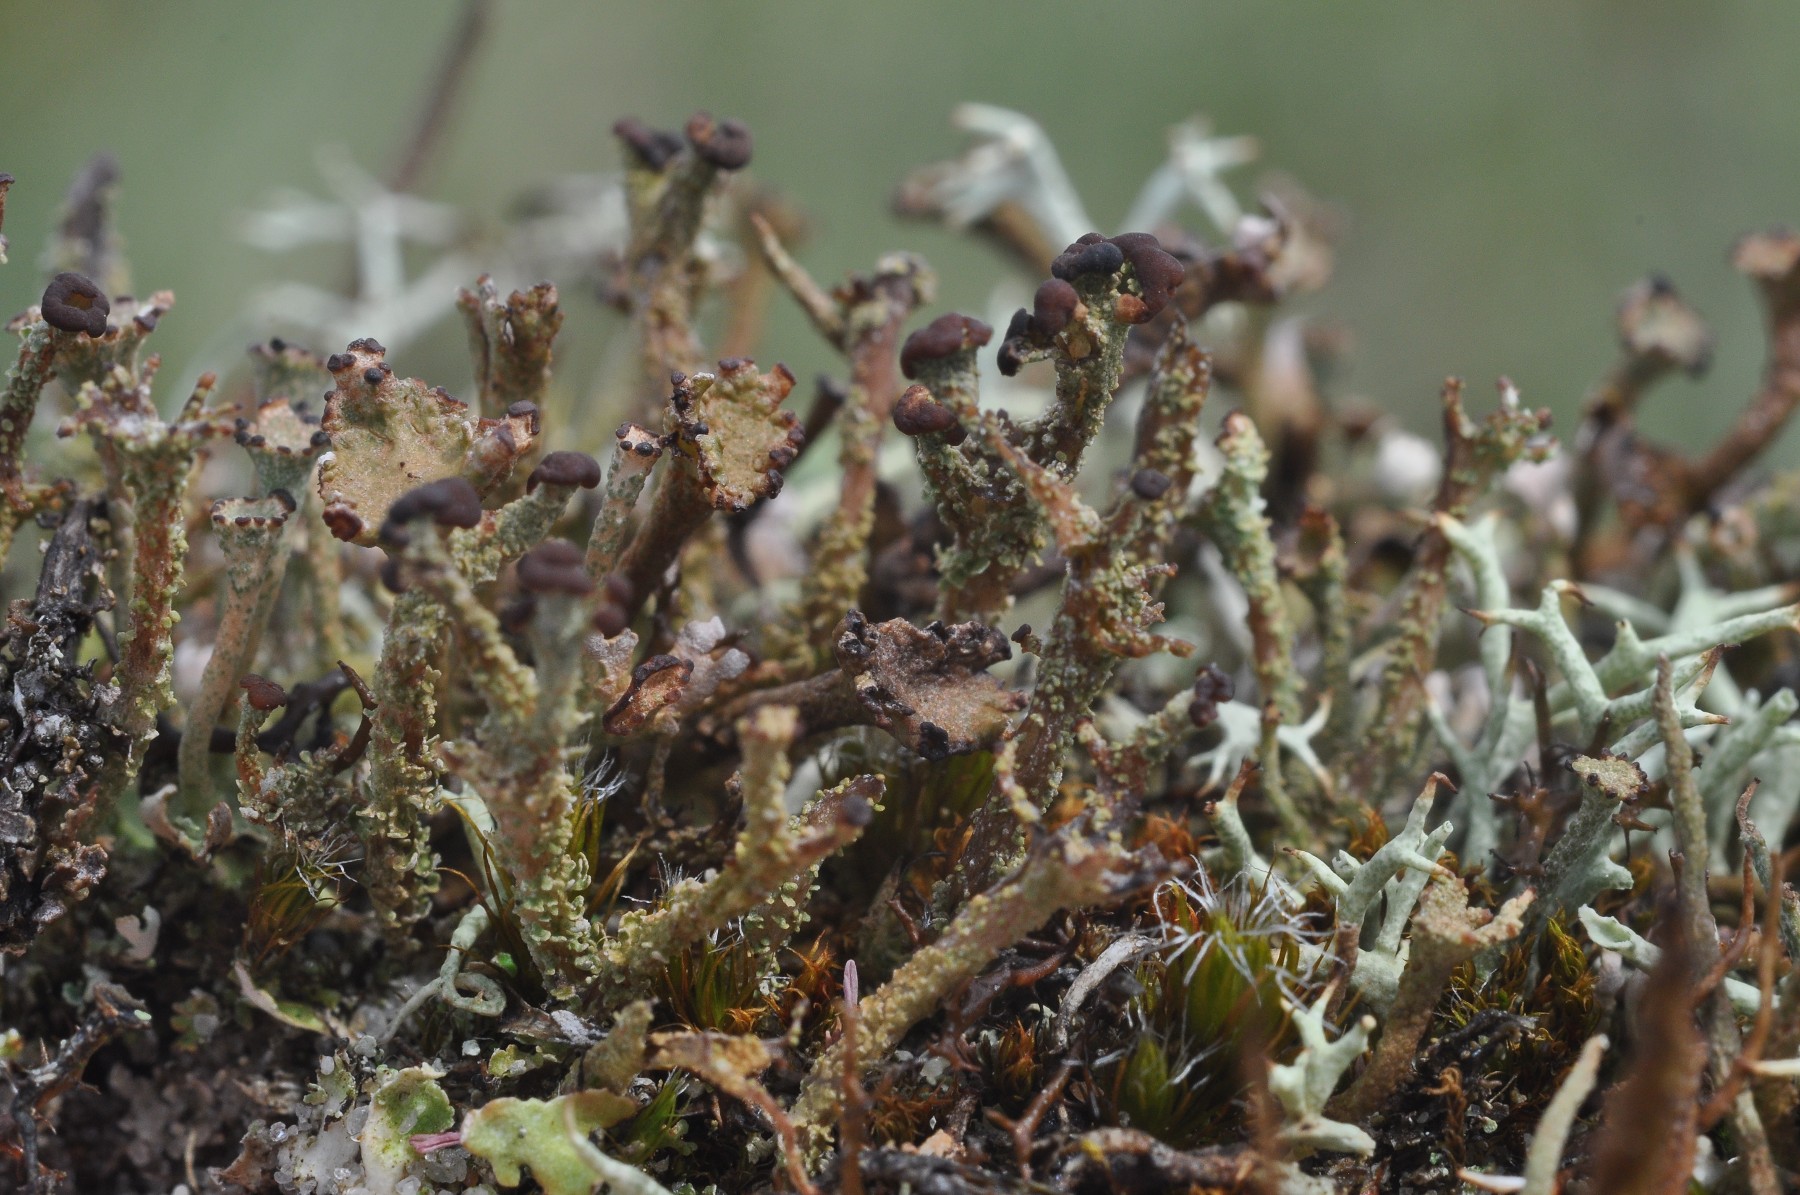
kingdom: Fungi
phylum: Ascomycota
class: Lecanoromycetes
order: Lecanorales
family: Cladoniaceae
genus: Cladonia
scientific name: Cladonia ramulosa
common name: kliddet bægerlav
